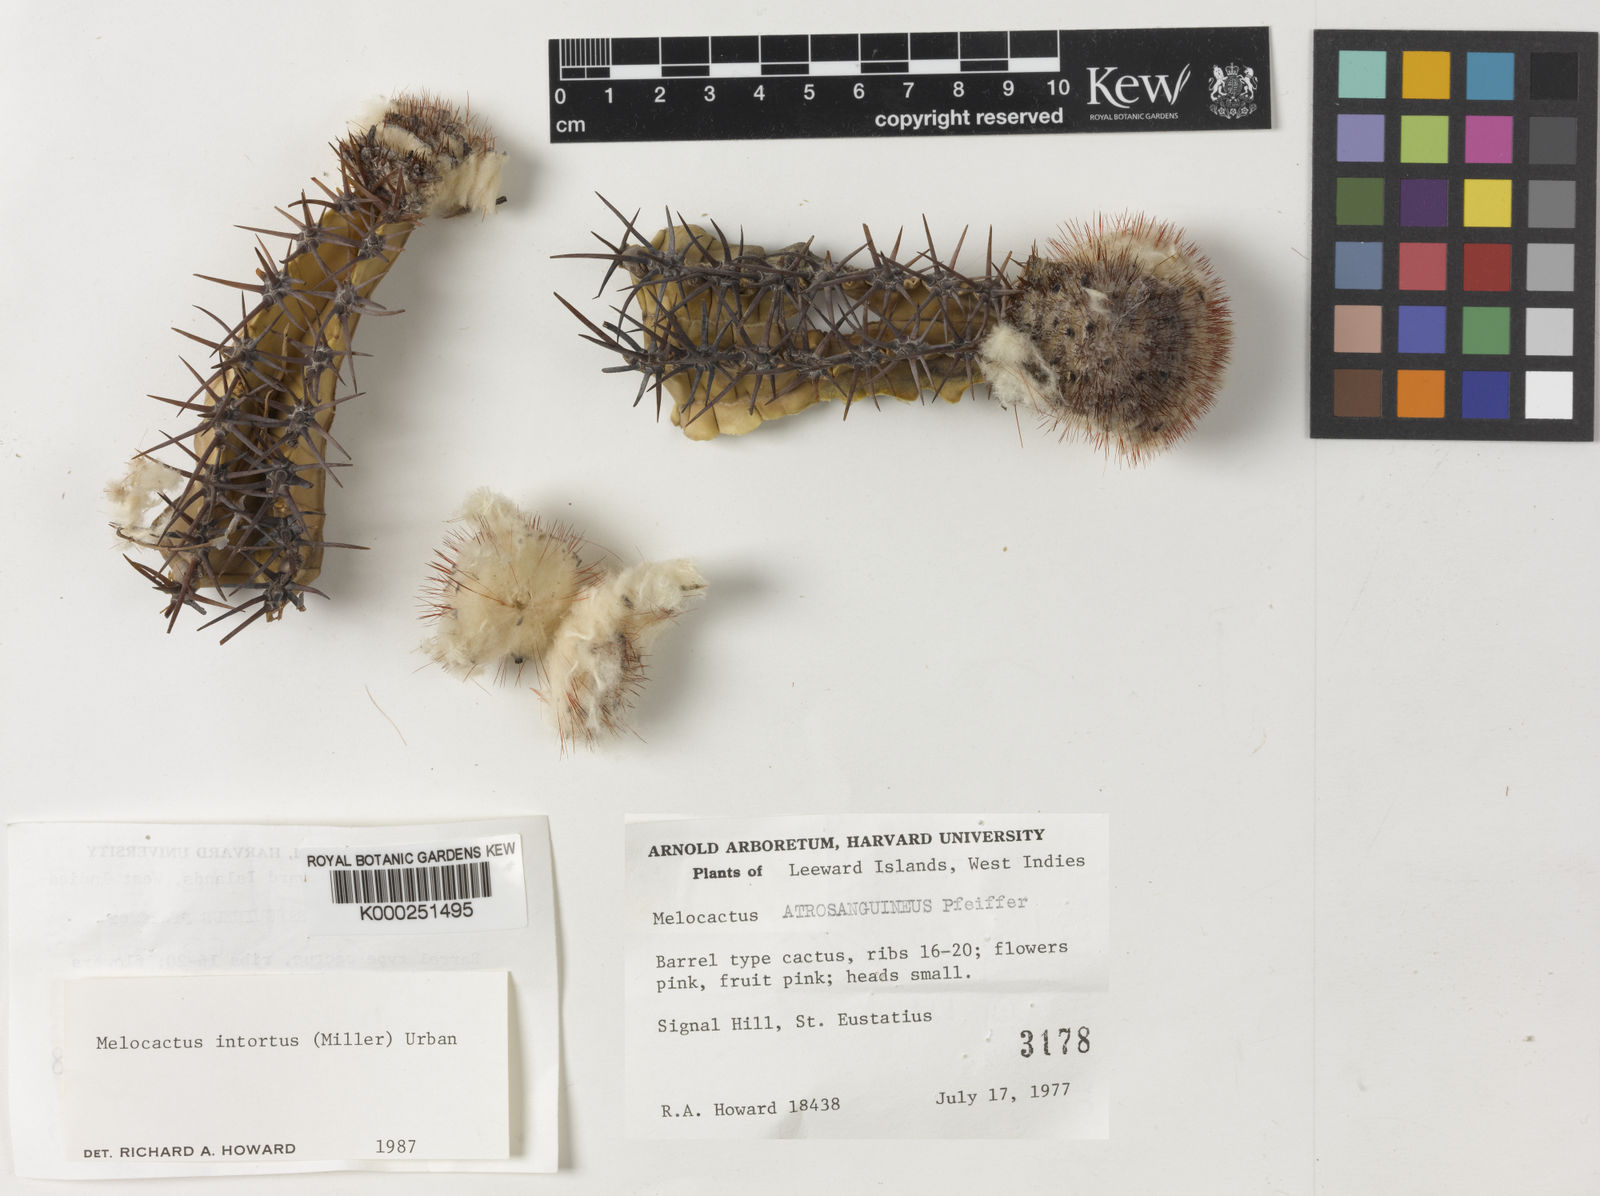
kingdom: Plantae
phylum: Tracheophyta
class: Magnoliopsida
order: Caryophyllales
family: Cactaceae
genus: Melocactus
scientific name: Melocactus
